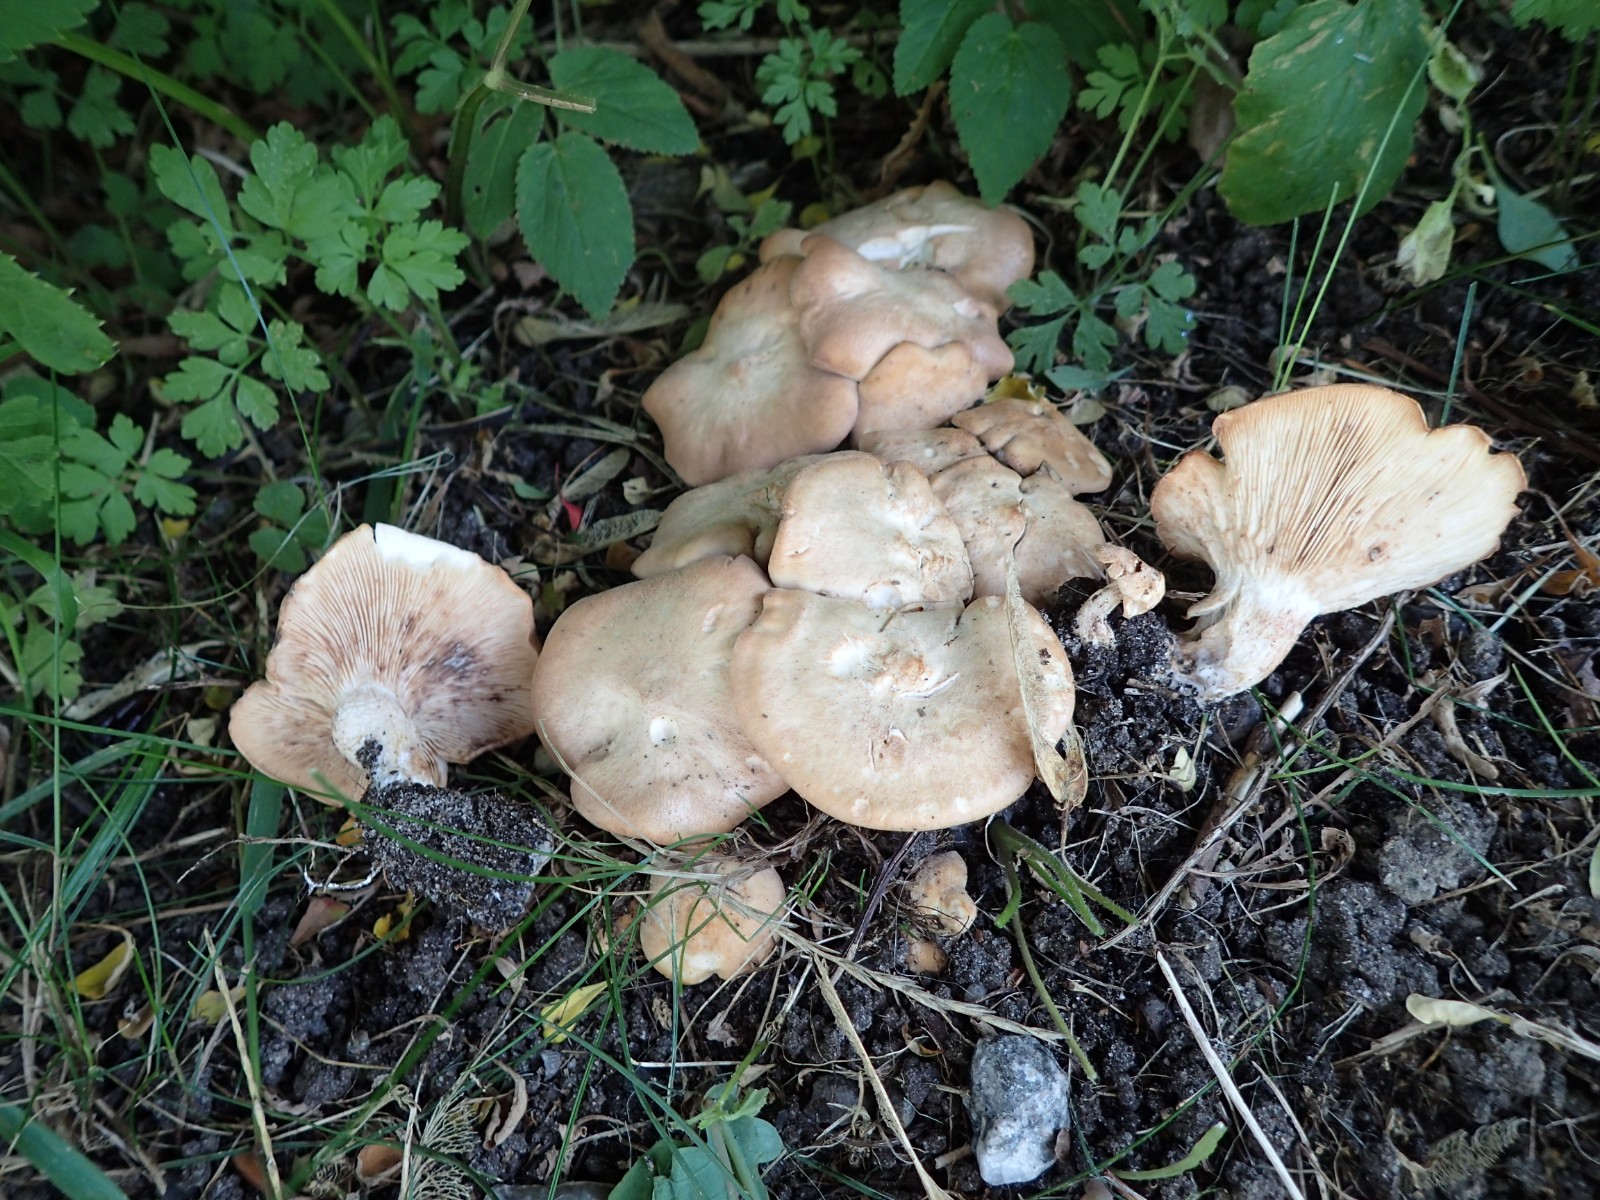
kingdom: Fungi
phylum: Basidiomycota
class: Agaricomycetes
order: Agaricales
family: Entolomataceae
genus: Clitopilus
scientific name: Clitopilus geminus
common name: kødfarvet troldhat
